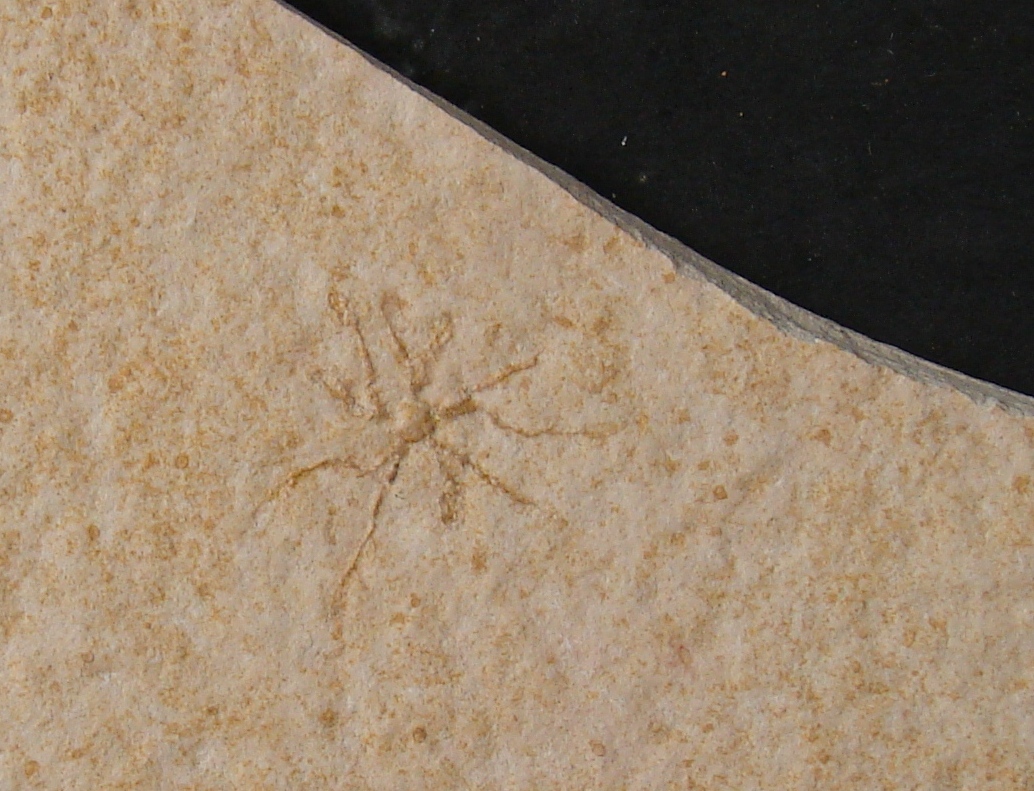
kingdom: Animalia
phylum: Echinodermata
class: Crinoidea
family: Saccocomidae
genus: Saccocoma
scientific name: Saccocoma
